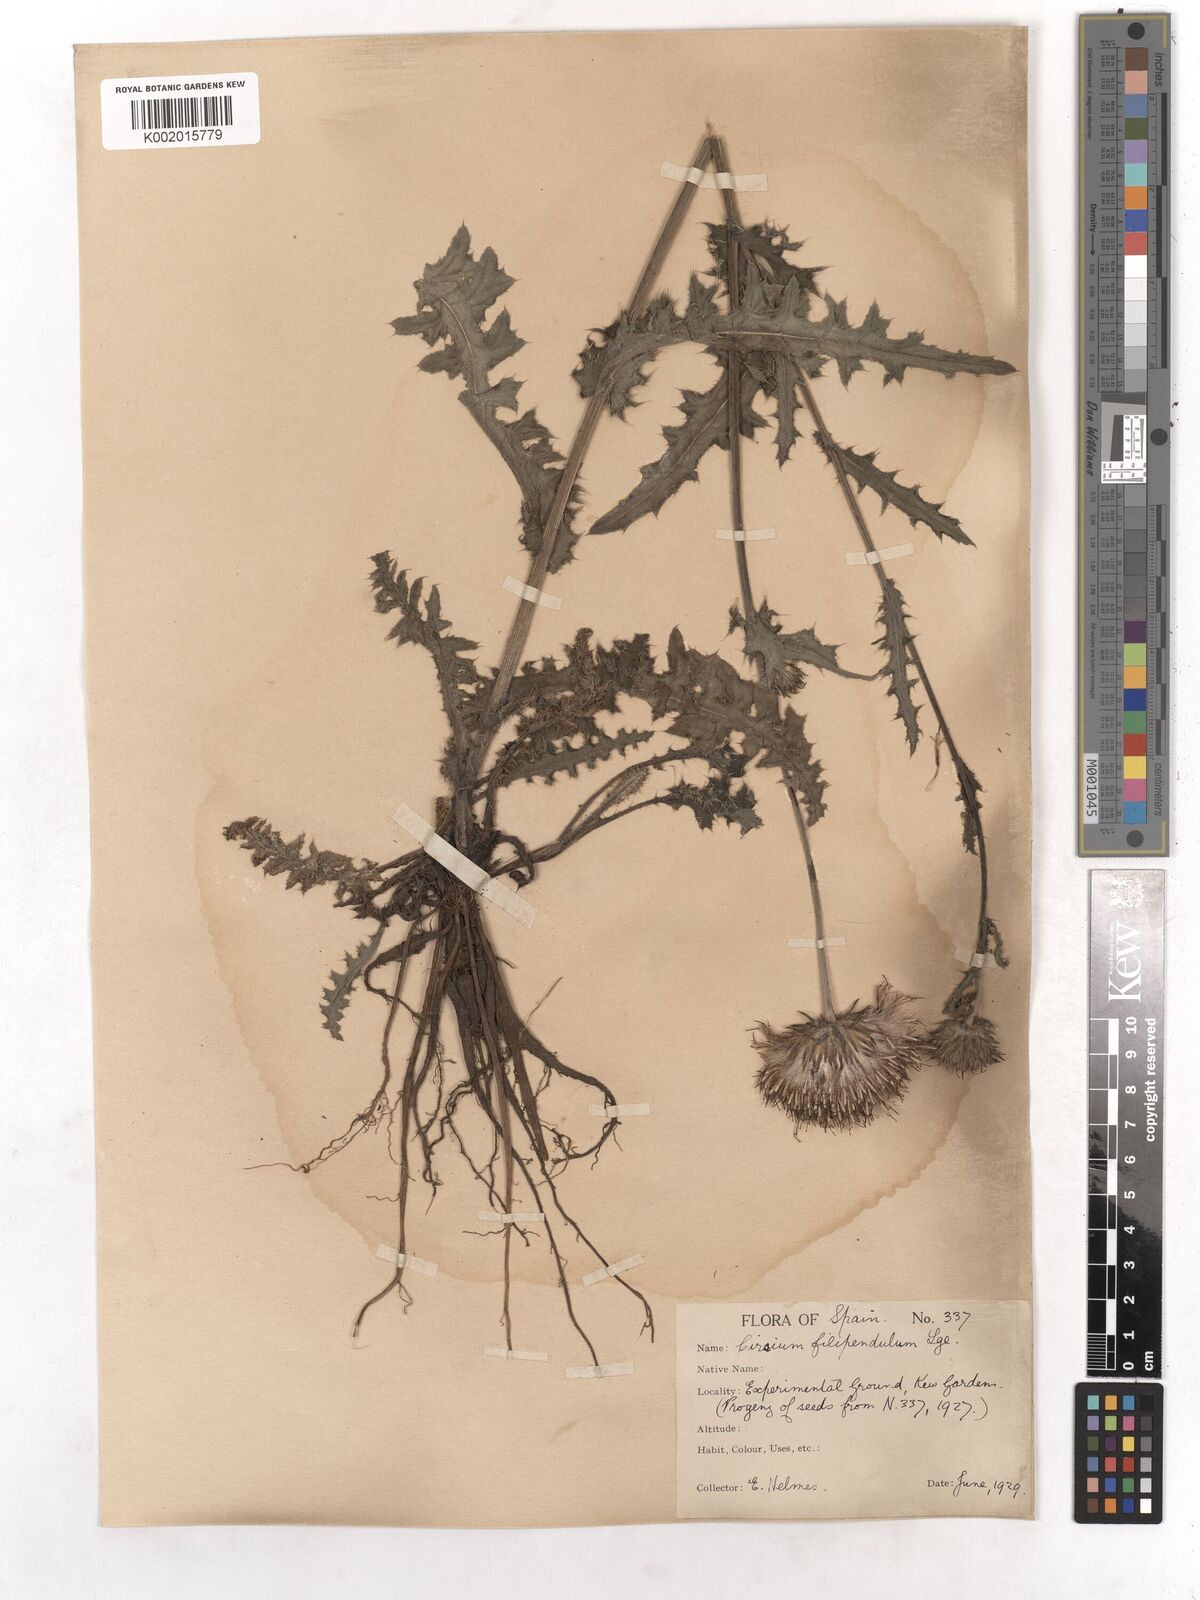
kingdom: Plantae
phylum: Tracheophyta
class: Magnoliopsida
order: Asterales
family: Asteraceae
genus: Cirsium
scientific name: Cirsium filipendulum
